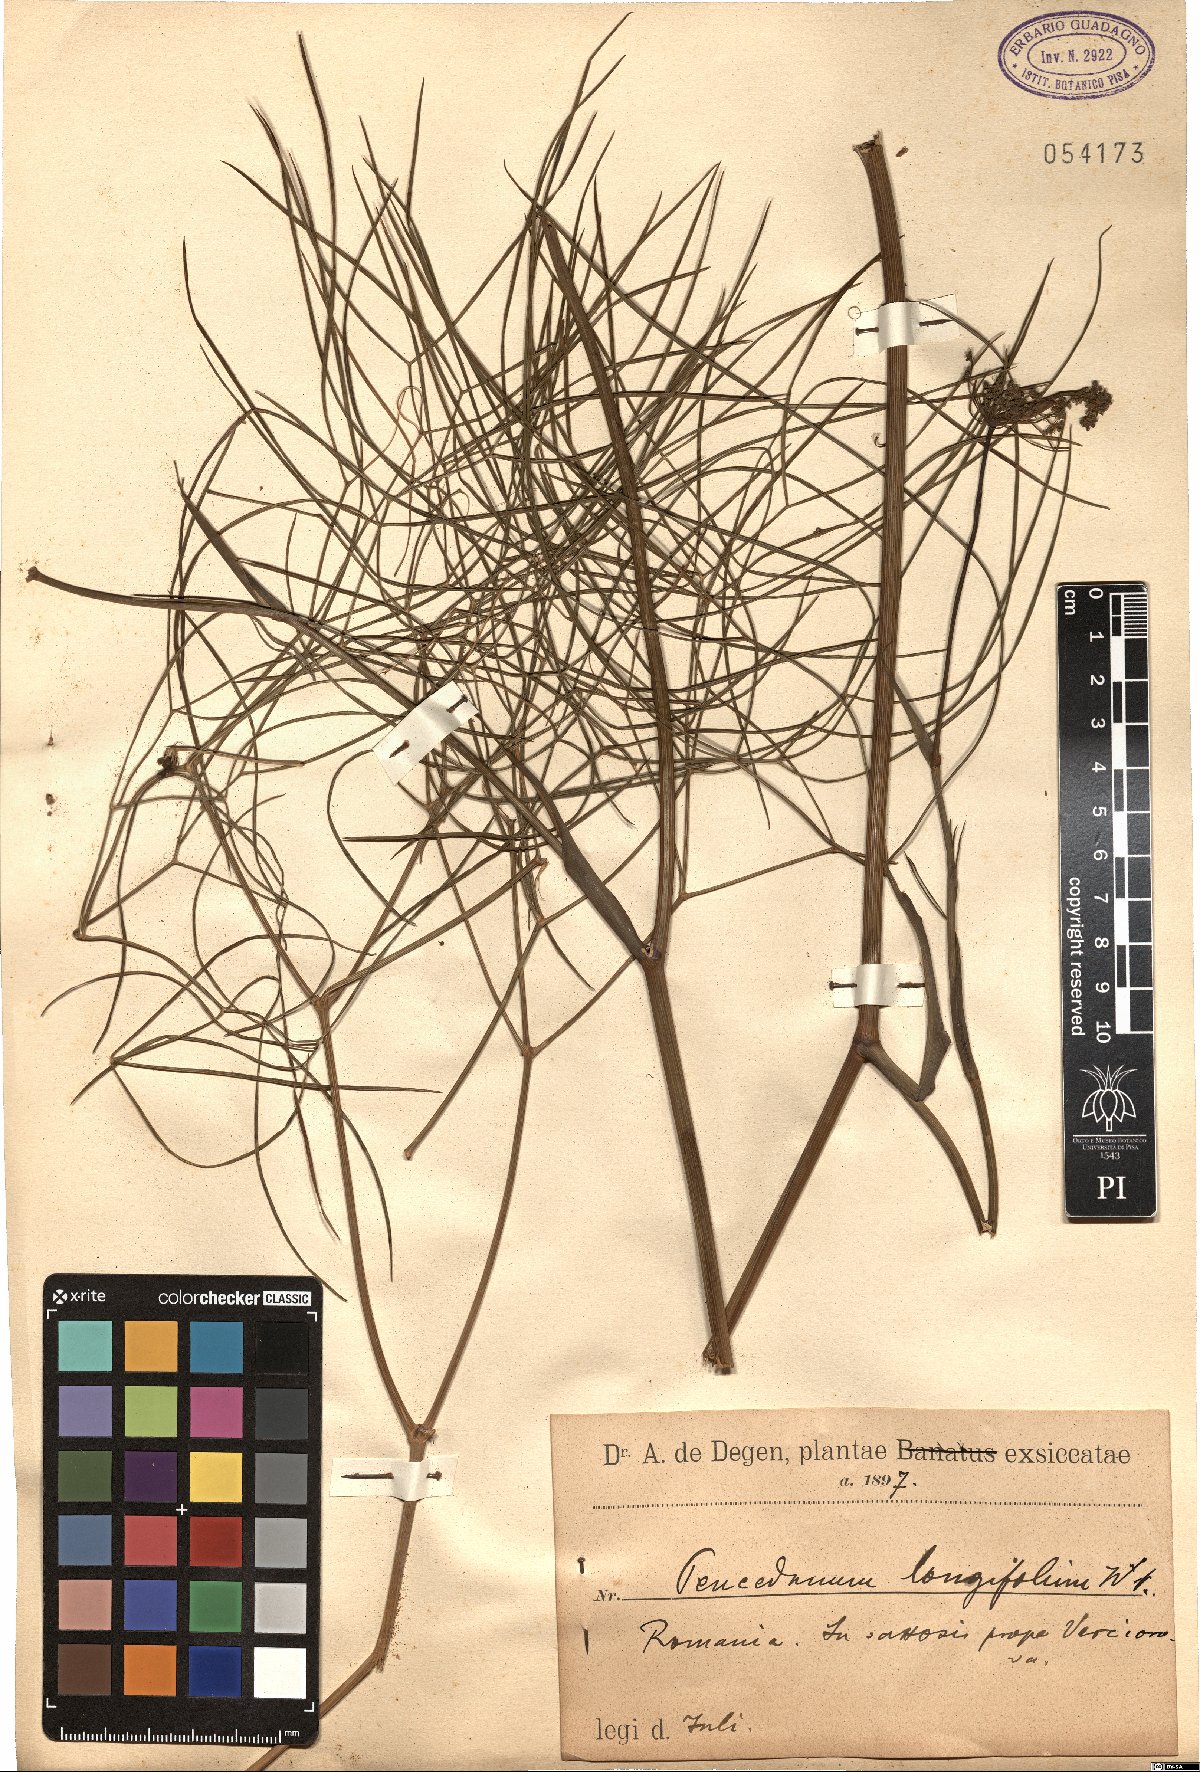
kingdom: Plantae
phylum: Tracheophyta
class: Magnoliopsida
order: Apiales
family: Apiaceae
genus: Peucedanum
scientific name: Peucedanum longifolium
